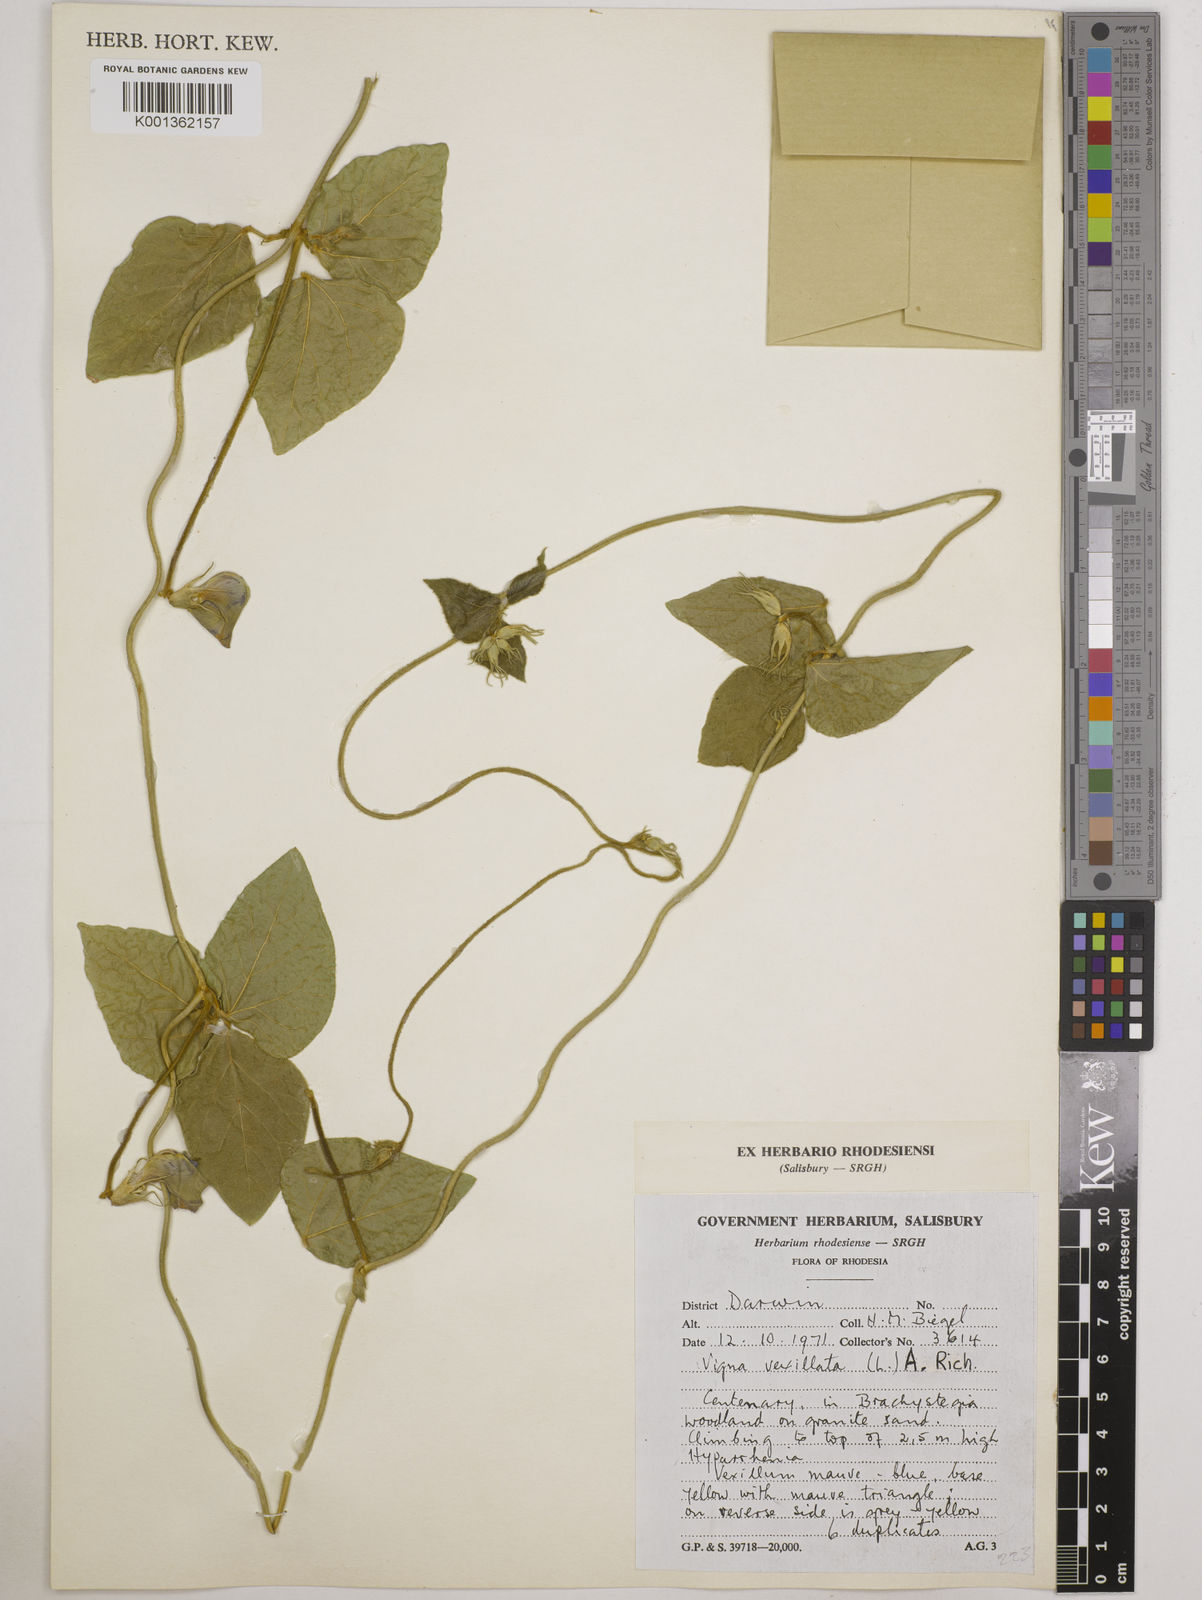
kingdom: Plantae
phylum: Tracheophyta
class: Magnoliopsida
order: Fabales
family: Fabaceae
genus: Vigna
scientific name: Vigna vexillata
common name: Zombi pea
